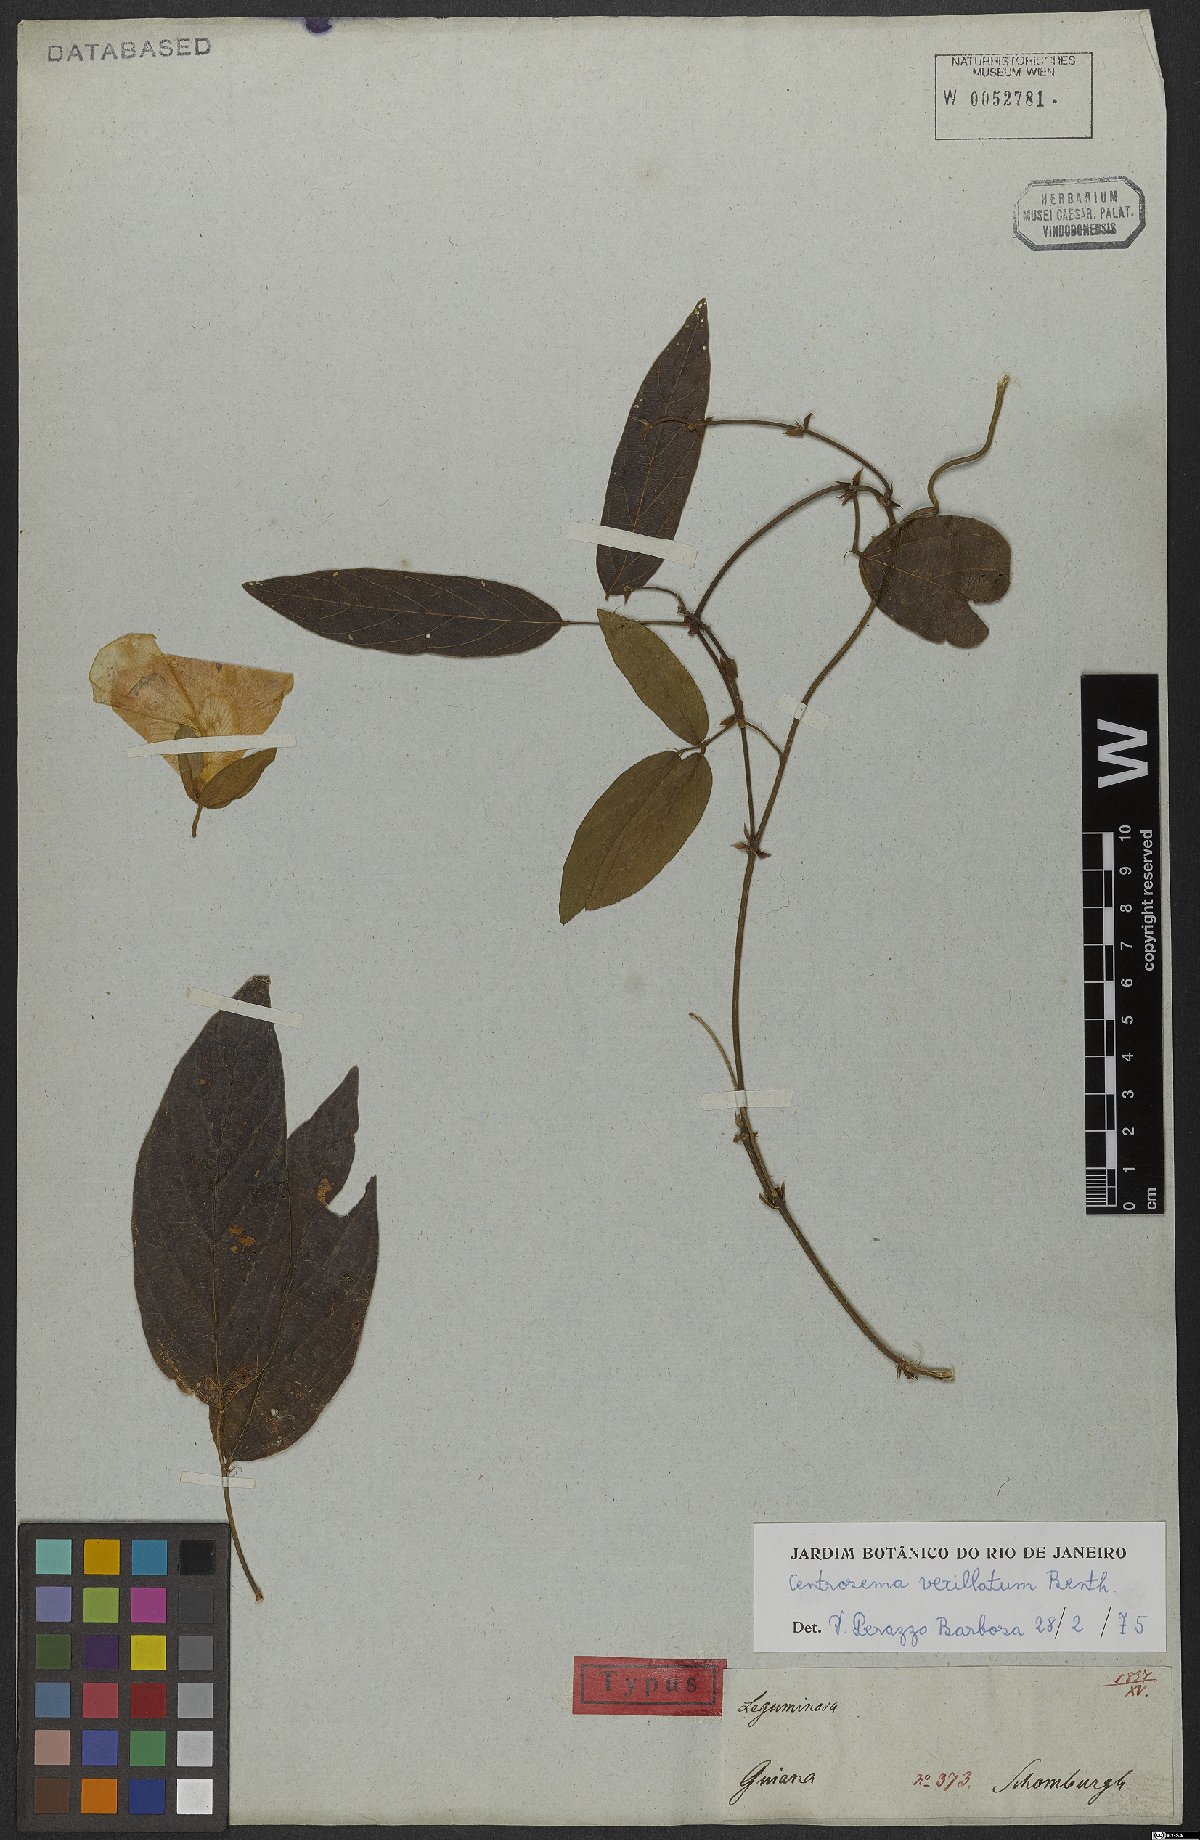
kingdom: Plantae
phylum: Tracheophyta
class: Magnoliopsida
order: Fabales
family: Fabaceae
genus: Centrosema
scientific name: Centrosema vexillatum
